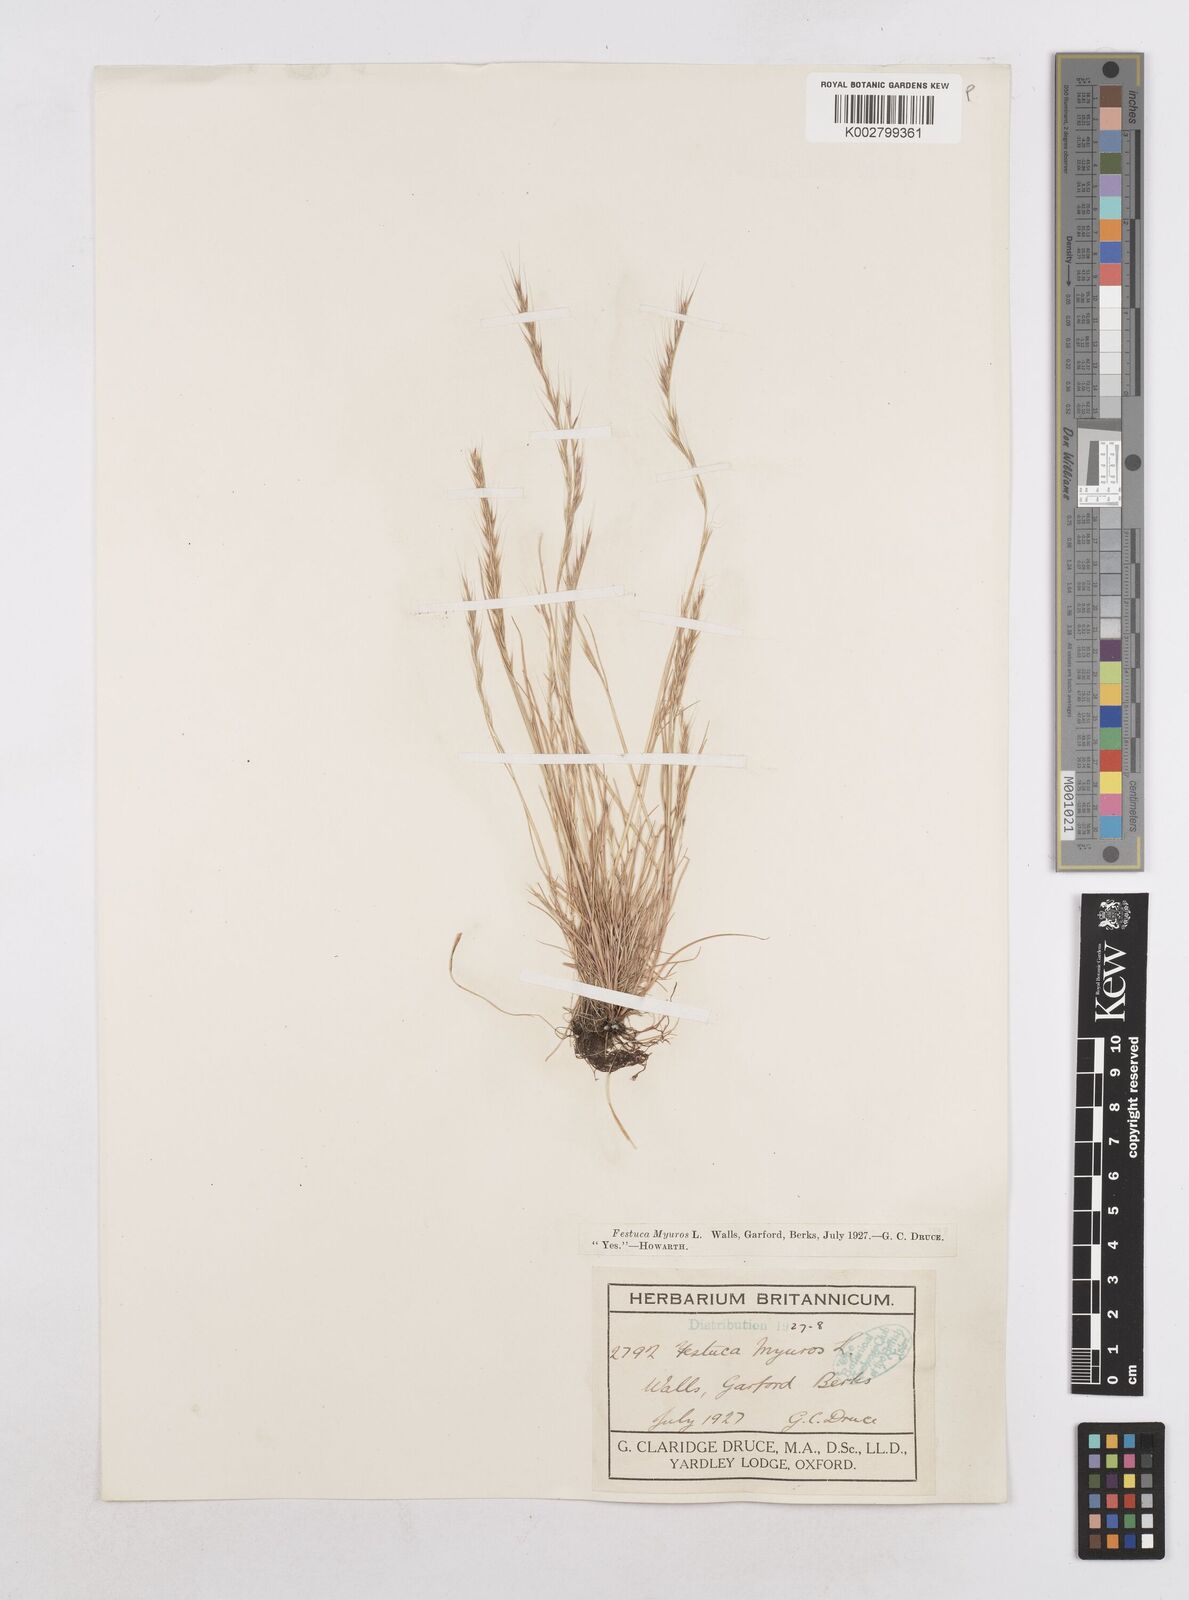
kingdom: Plantae
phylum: Tracheophyta
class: Liliopsida
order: Poales
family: Poaceae
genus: Festuca
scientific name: Festuca myuros
